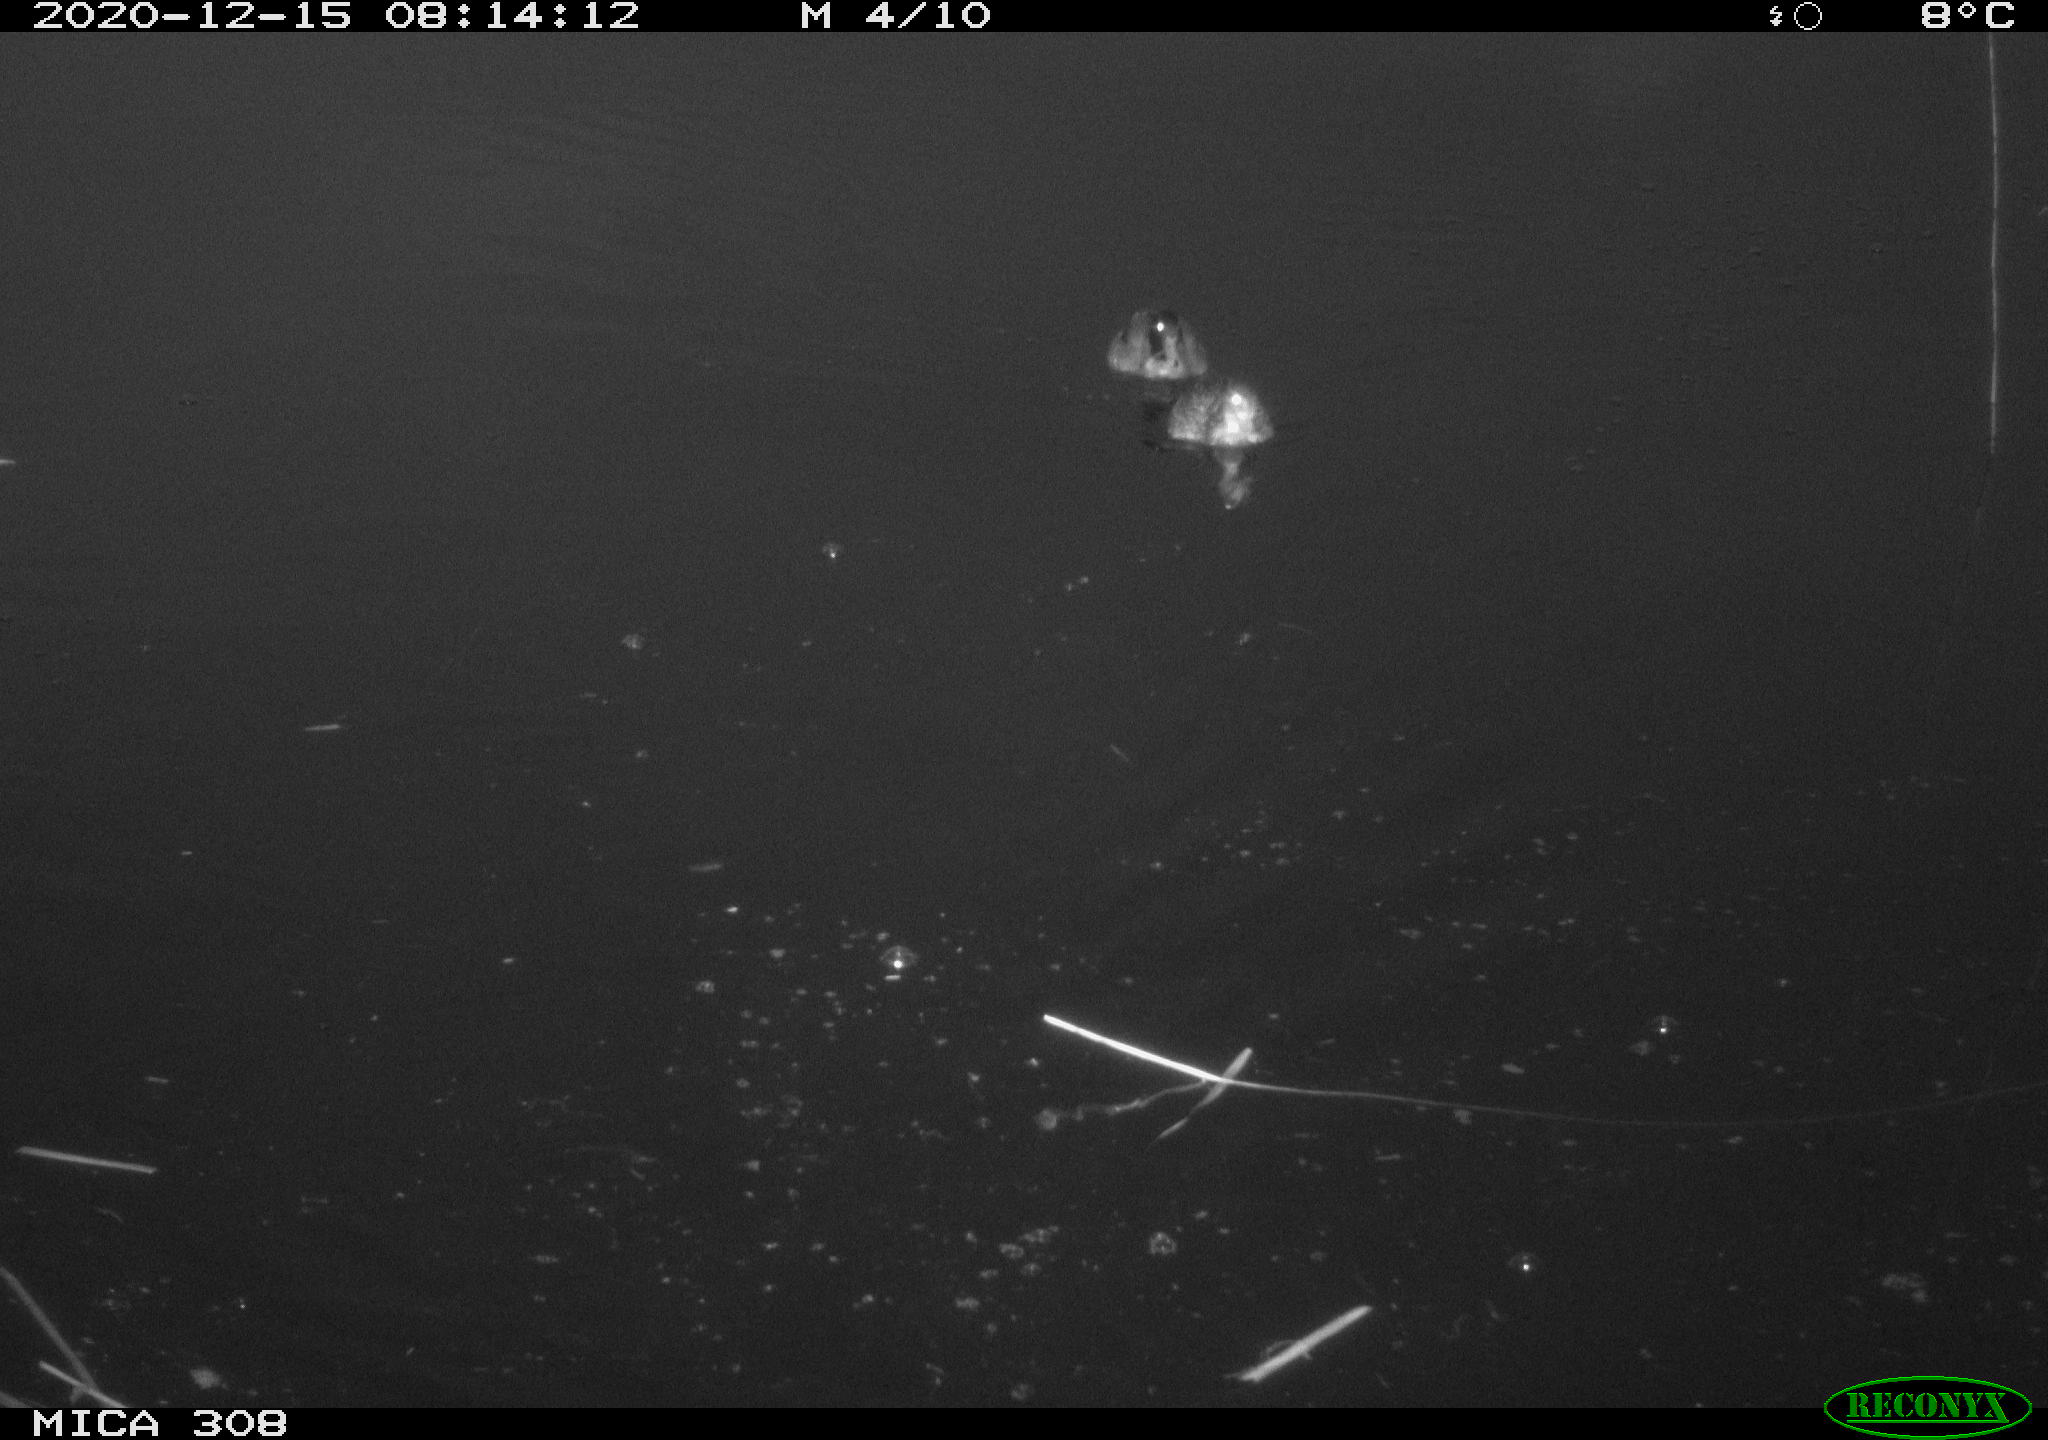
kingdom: Animalia
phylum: Chordata
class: Aves
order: Anseriformes
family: Anatidae
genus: Anas
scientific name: Anas platyrhynchos
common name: Mallard
